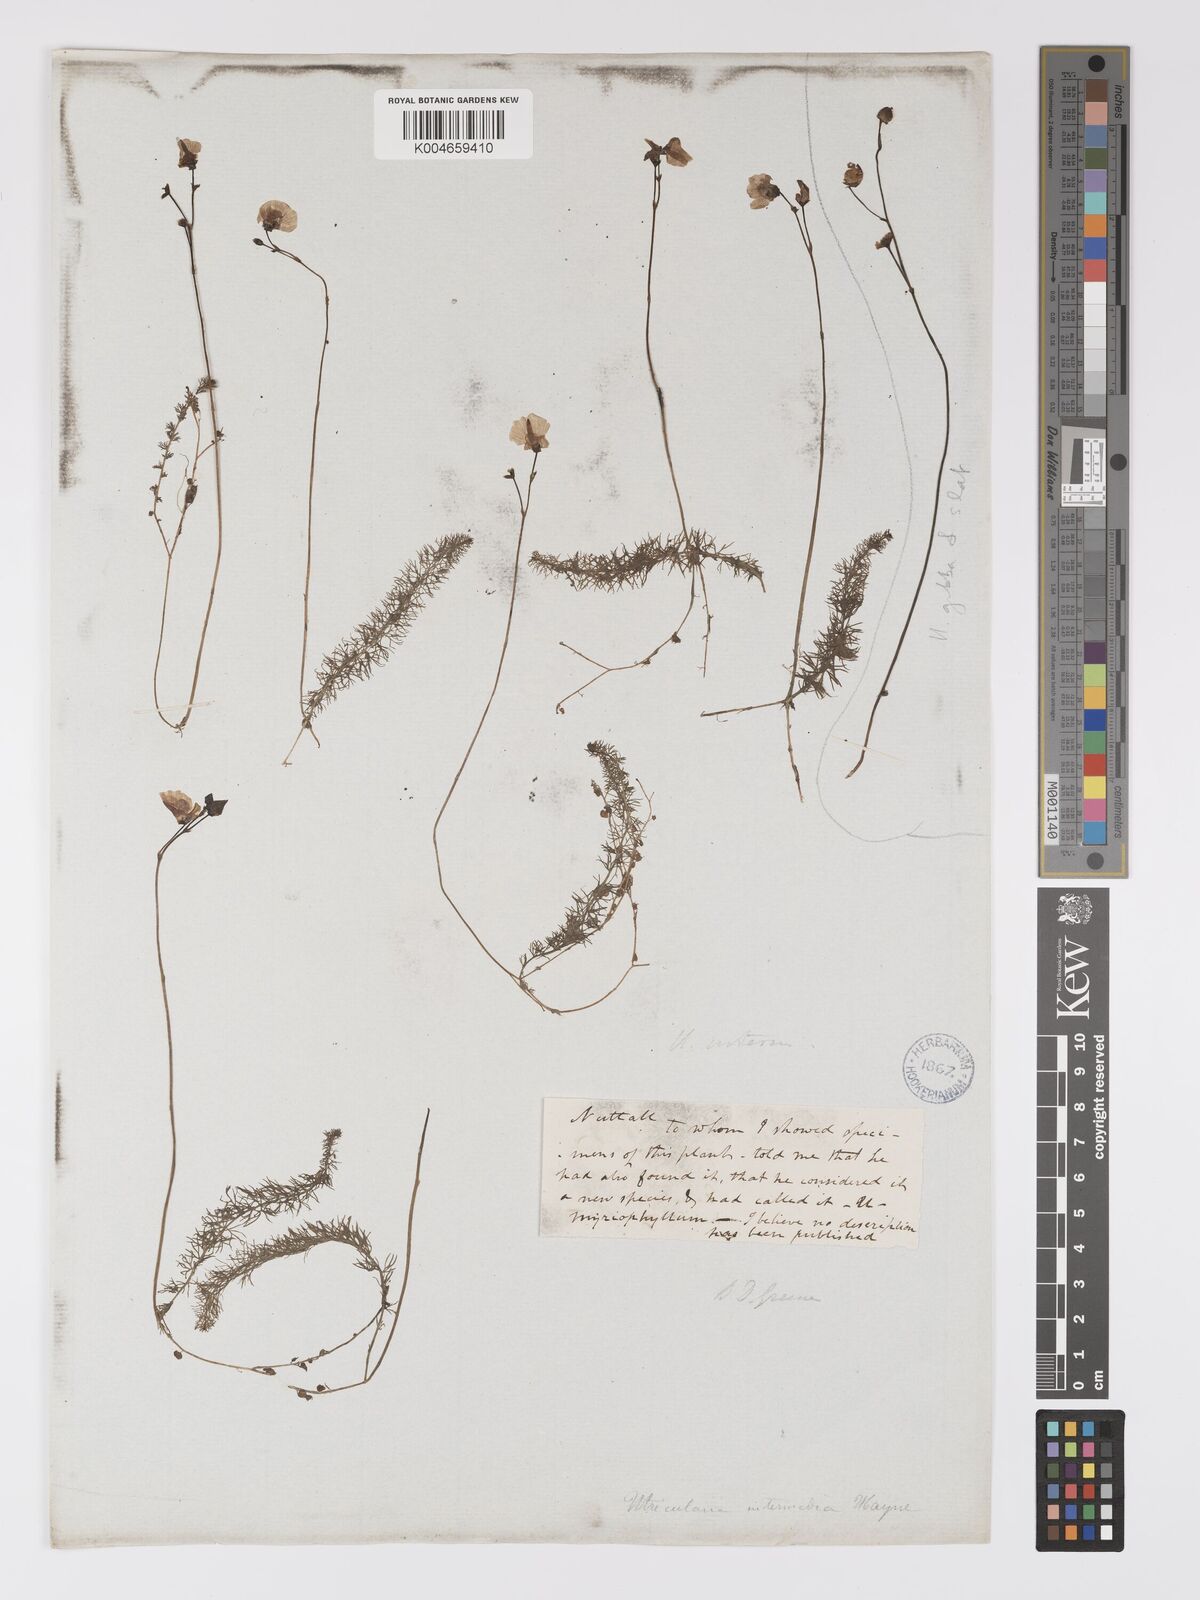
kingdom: Plantae
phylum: Tracheophyta
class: Magnoliopsida
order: Lamiales
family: Lentibulariaceae
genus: Utricularia
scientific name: Utricularia intermedia
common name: Intermediate bladderwort
